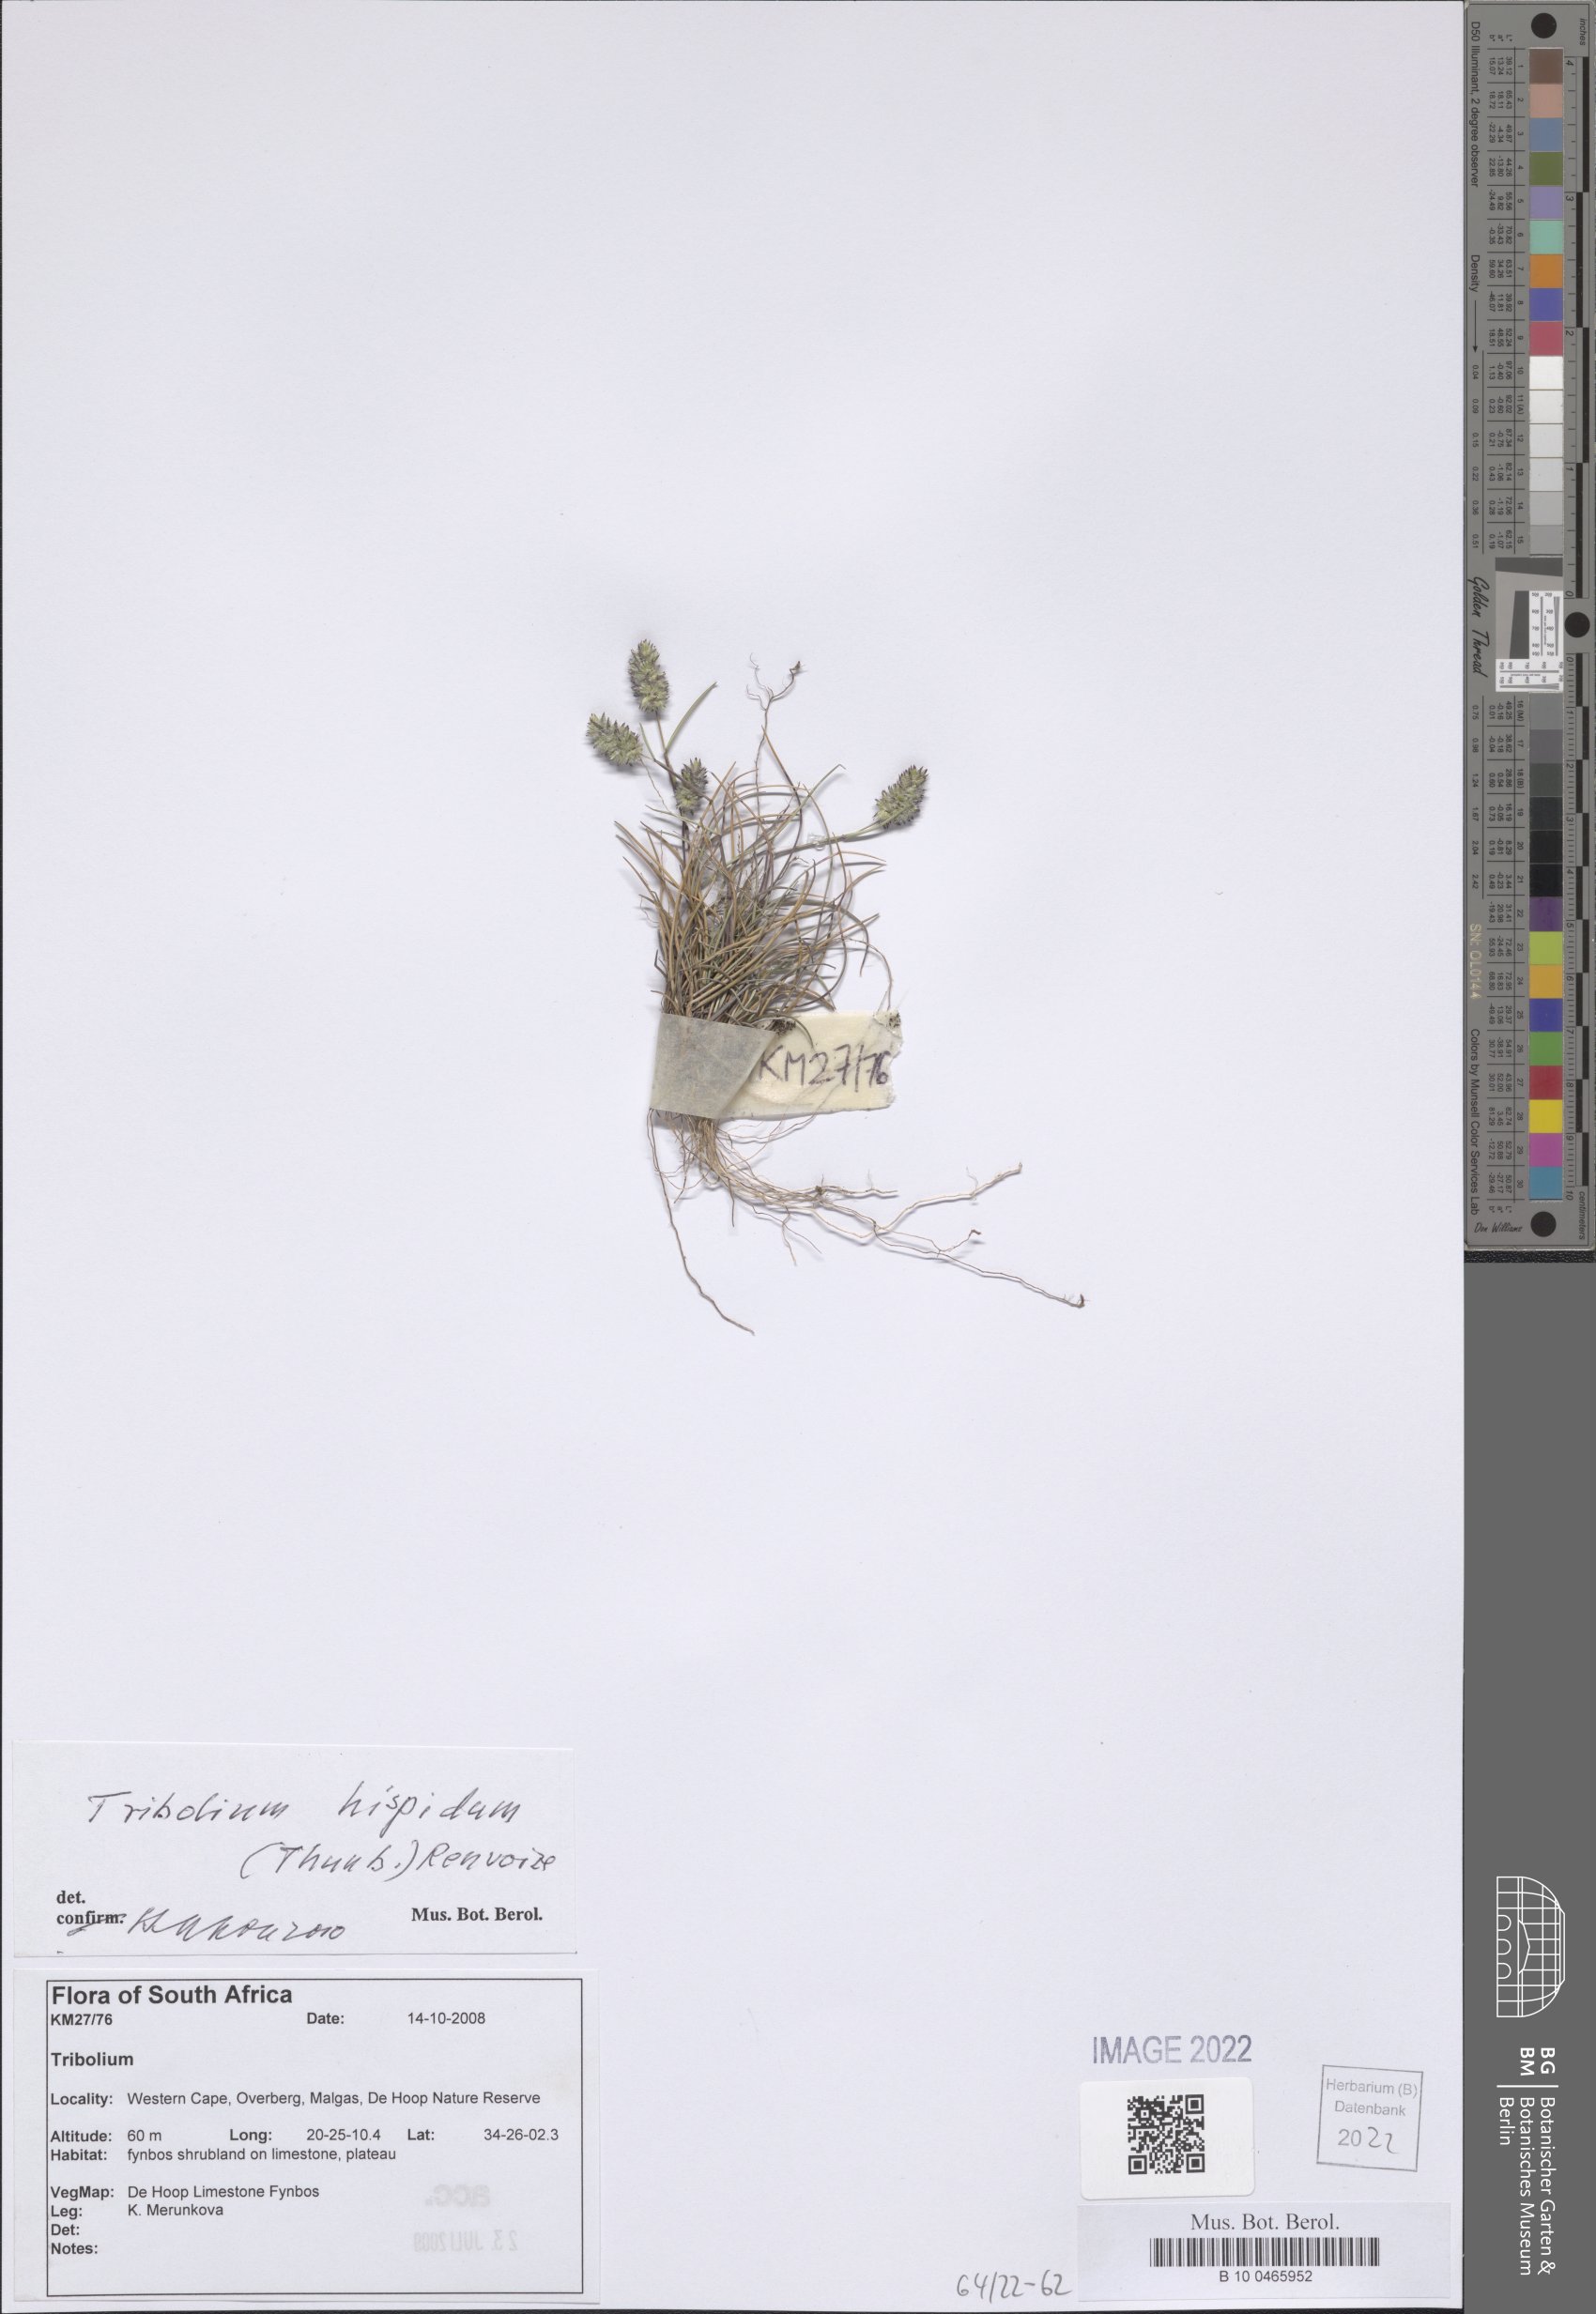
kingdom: Plantae
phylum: Tracheophyta
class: Liliopsida
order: Poales
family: Poaceae
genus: Tribolium
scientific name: Tribolium hispidum
